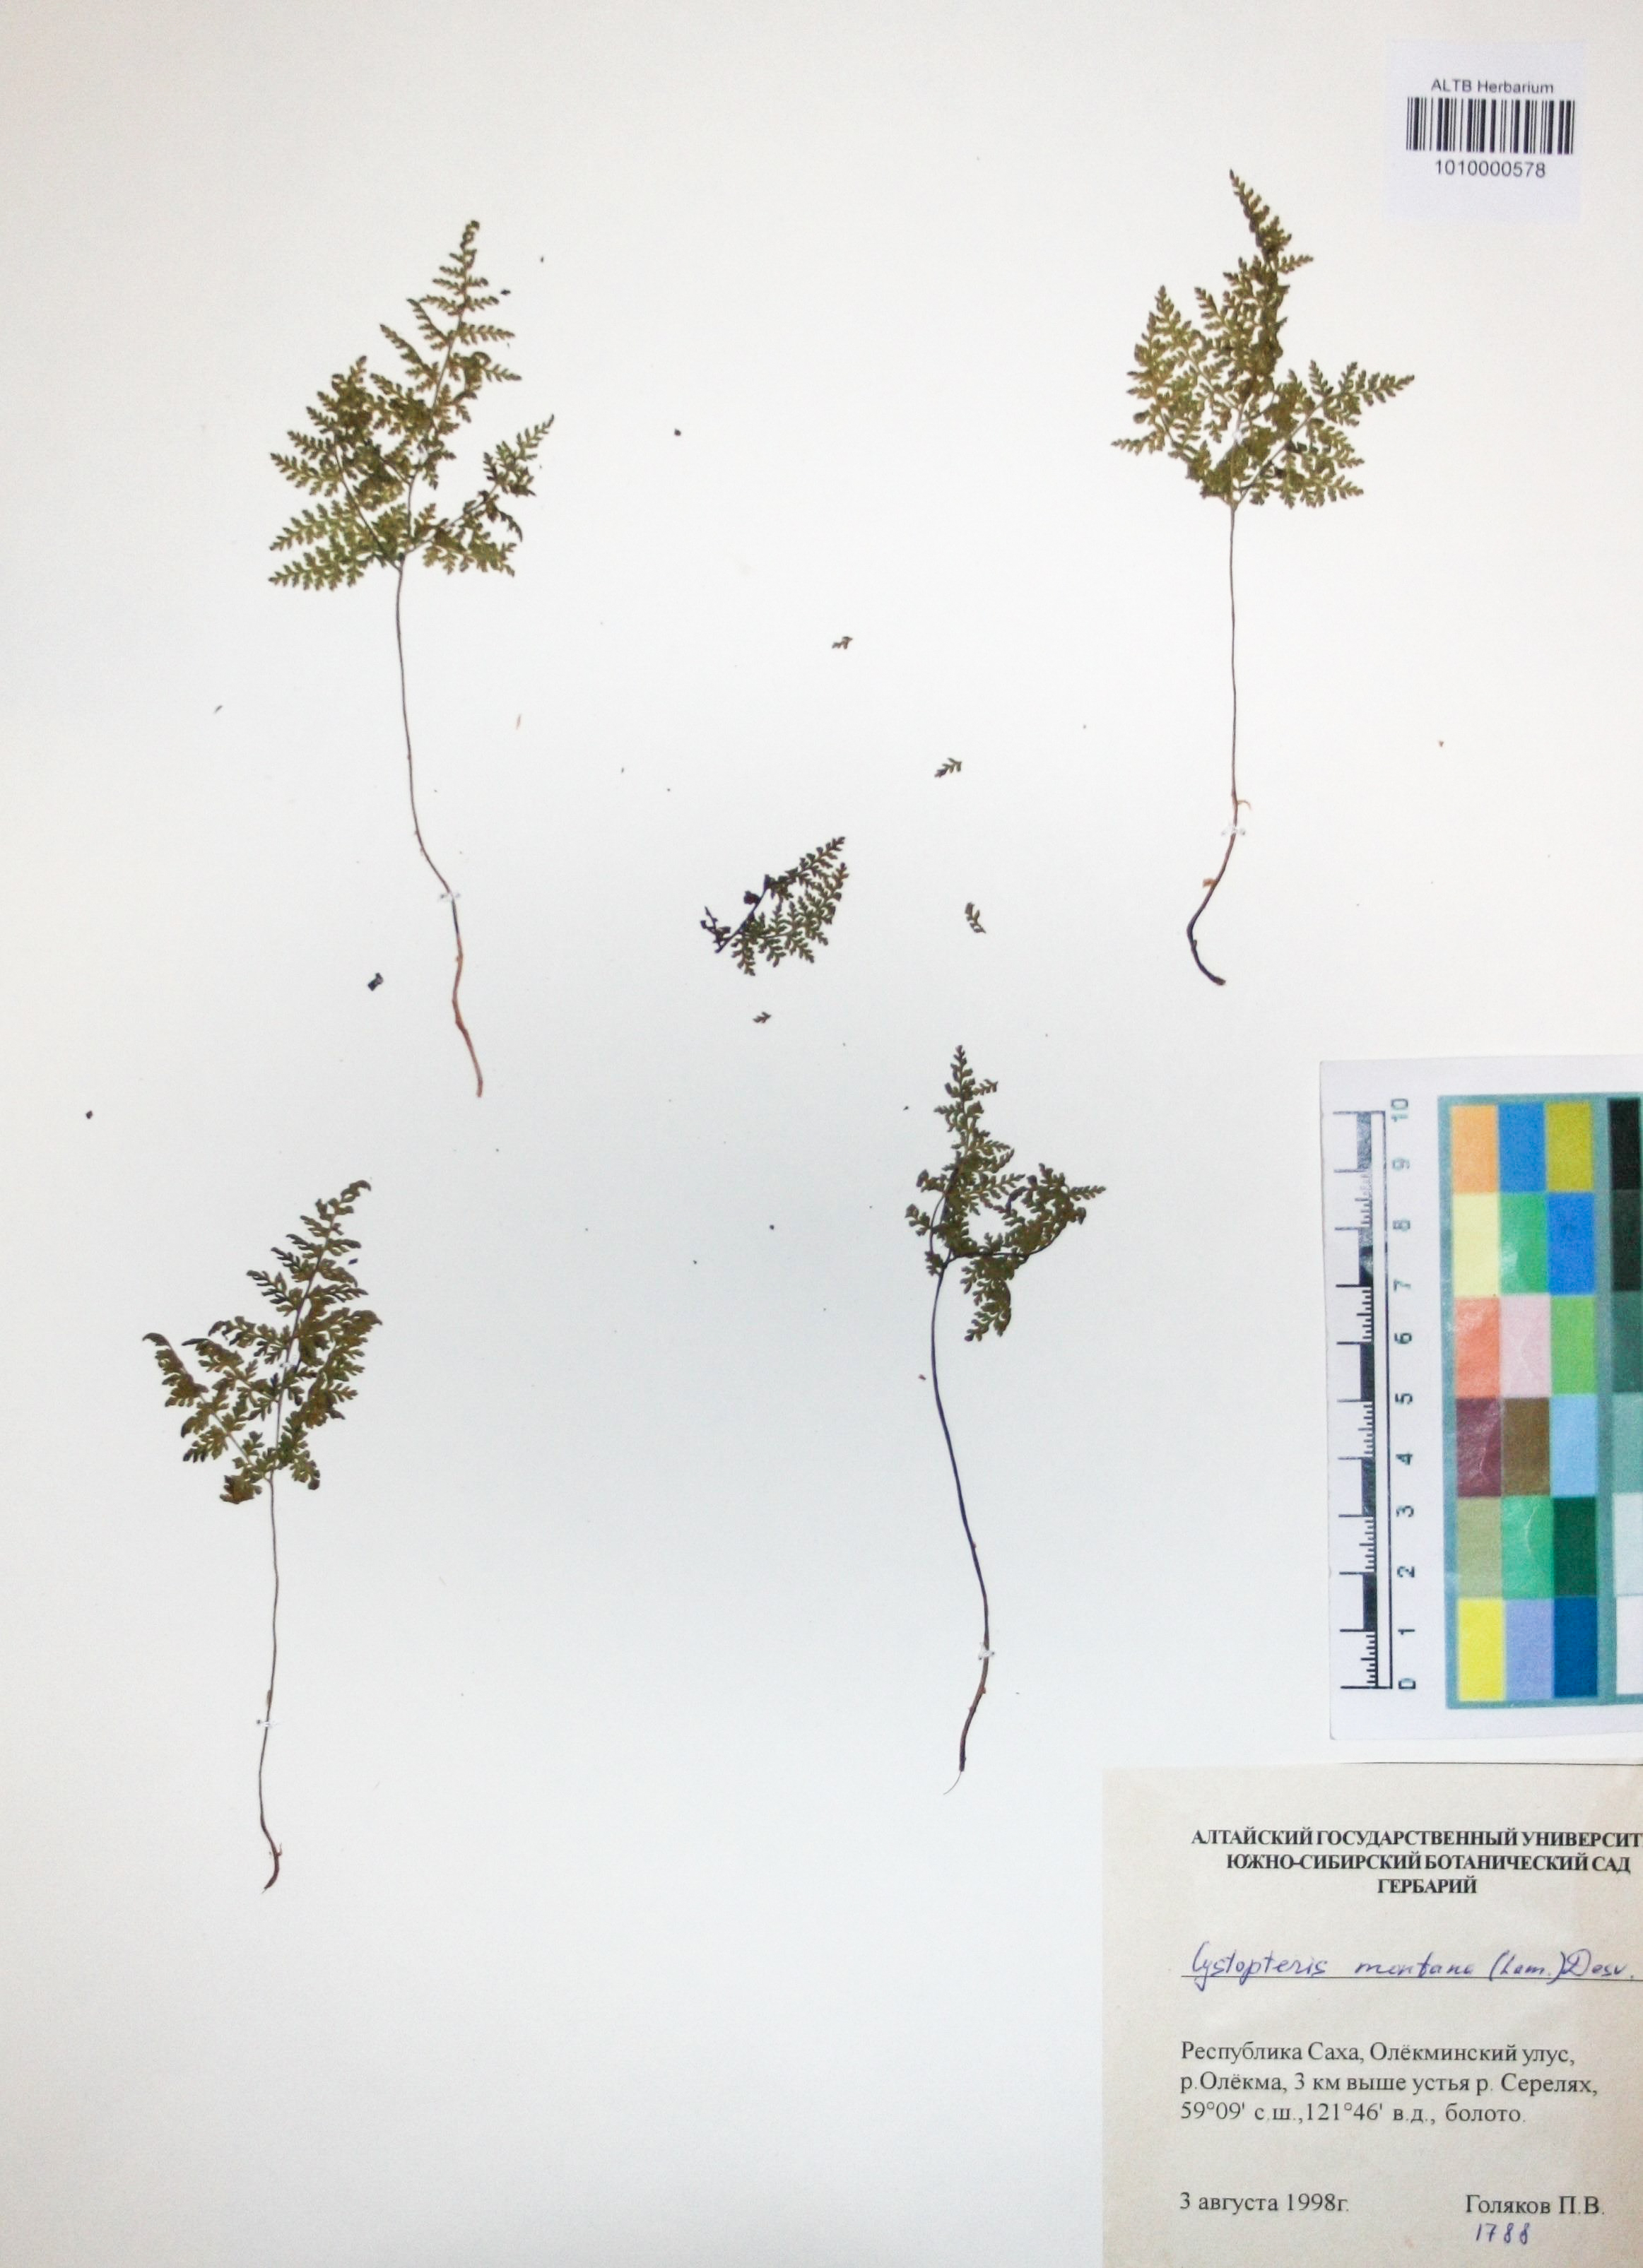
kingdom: Plantae
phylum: Tracheophyta
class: Polypodiopsida
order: Polypodiales
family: Cystopteridaceae
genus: Cystopteris
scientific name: Cystopteris montana
